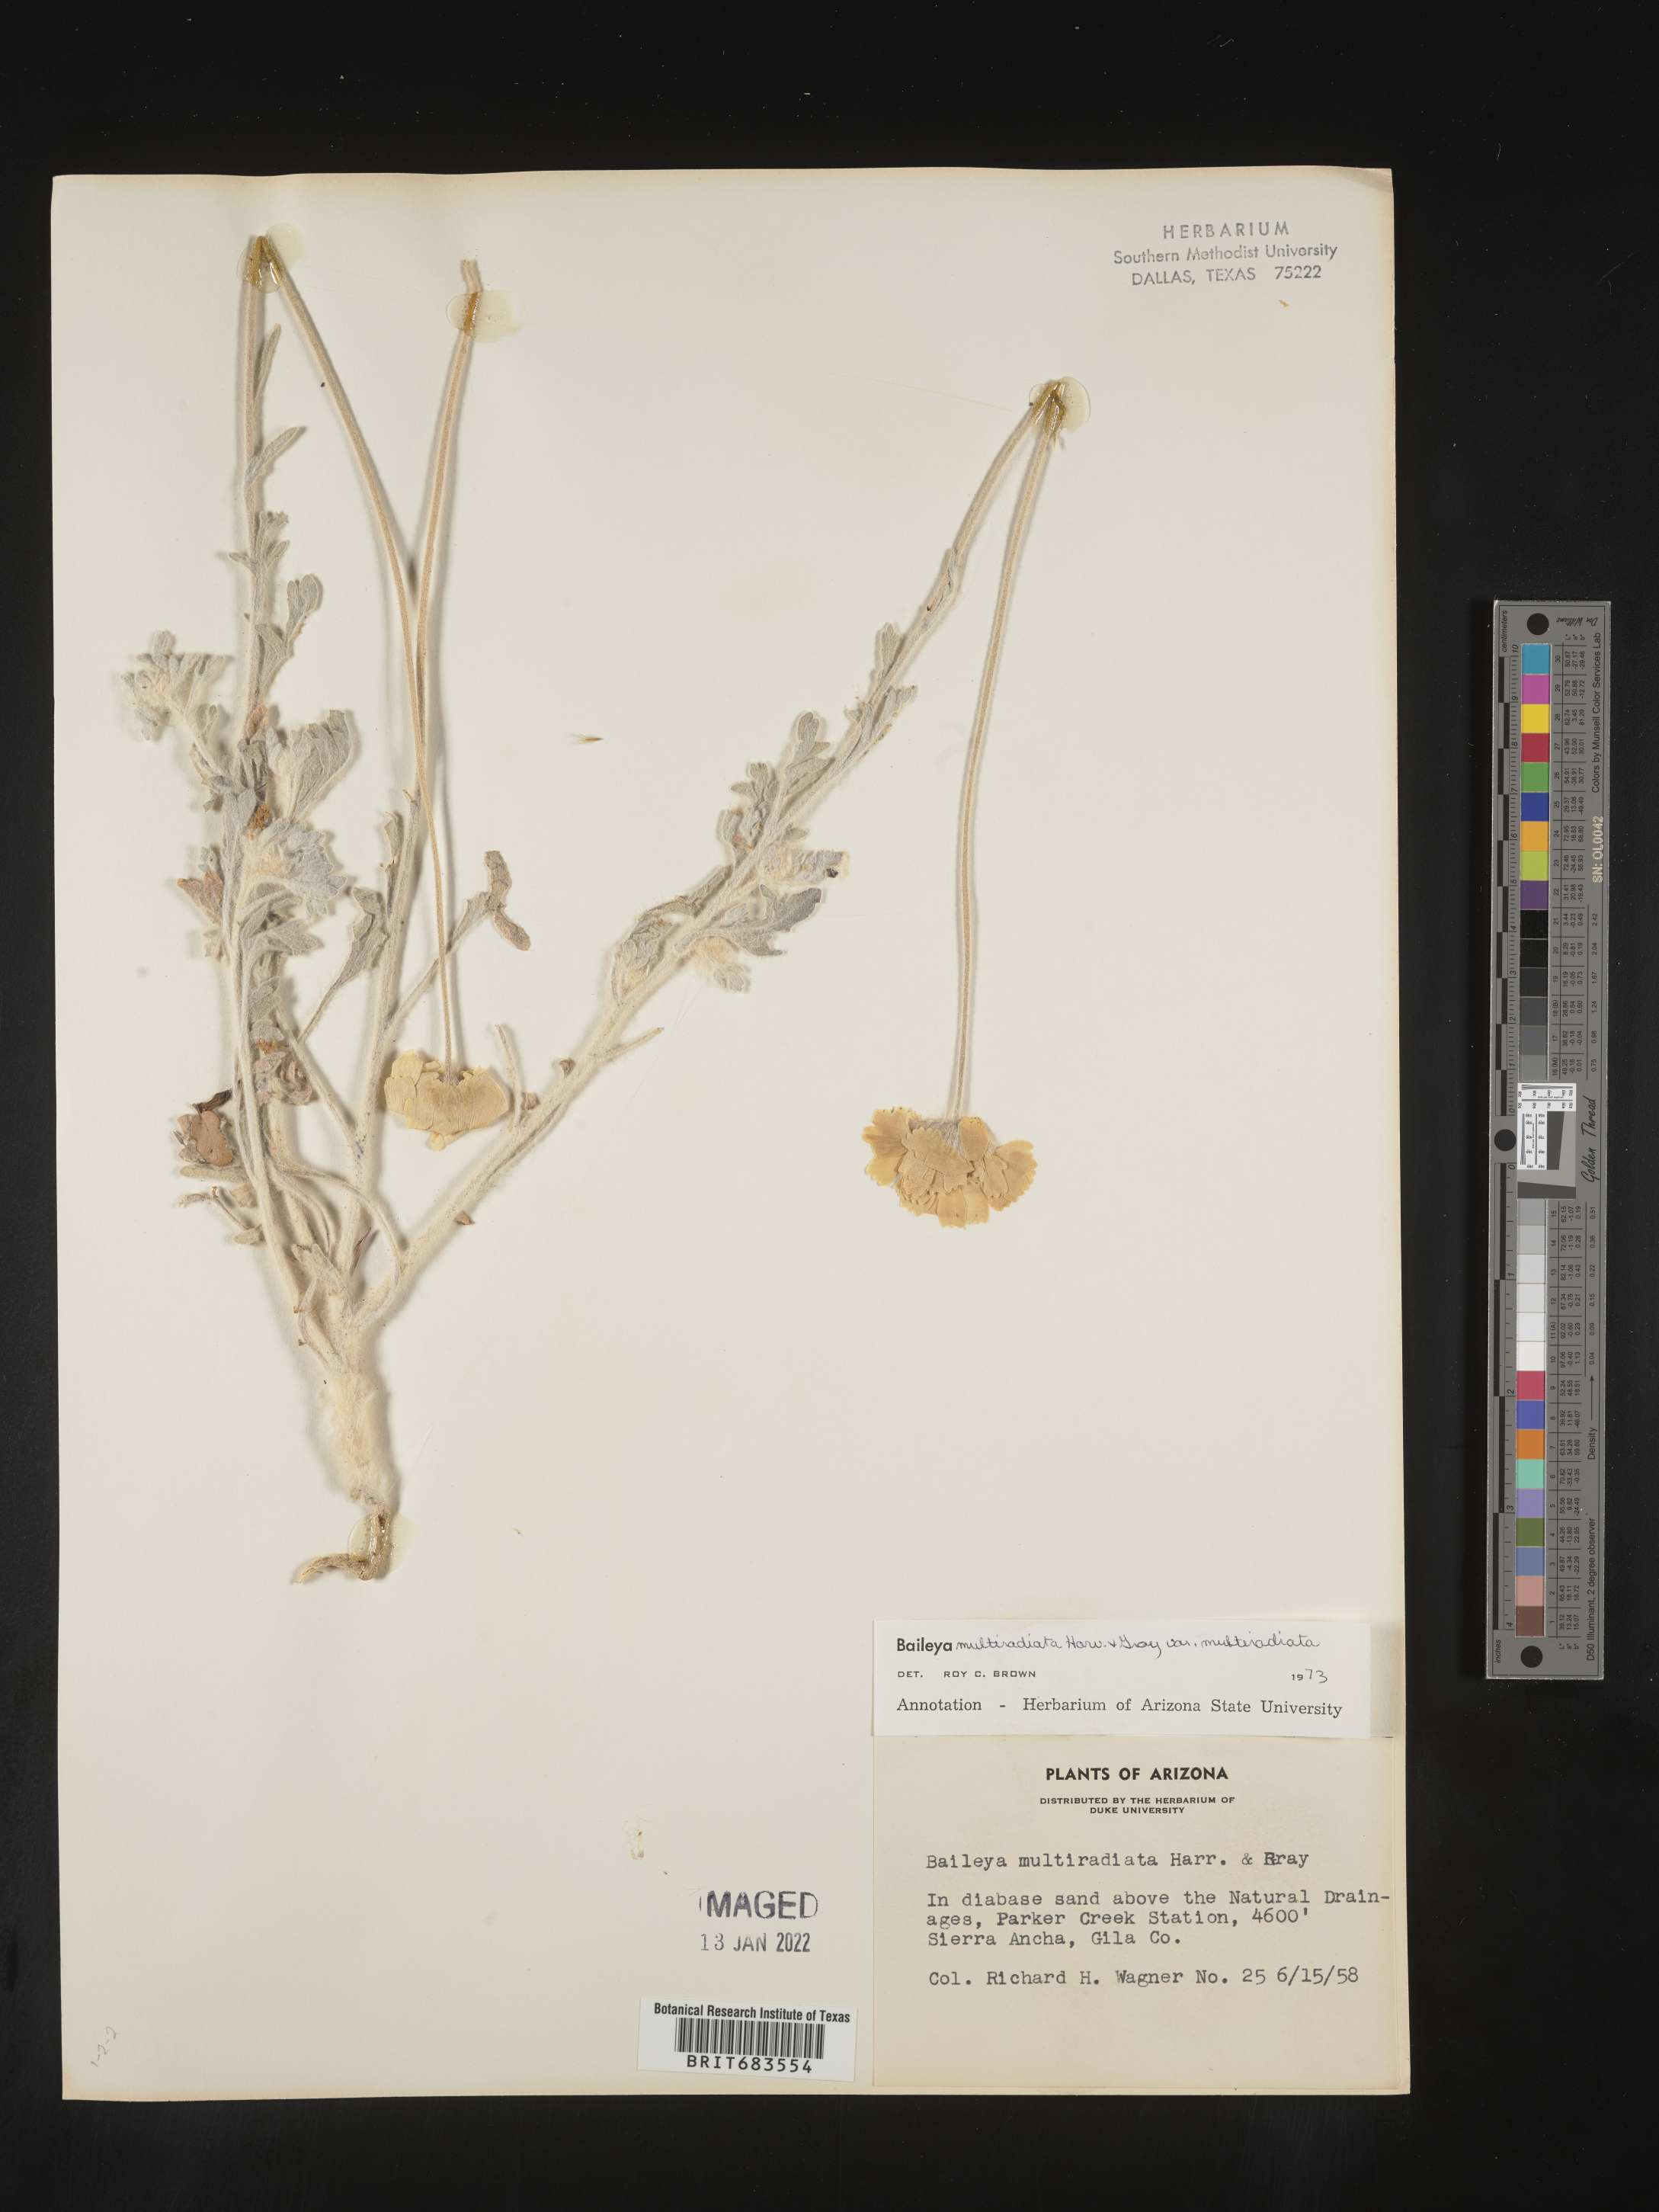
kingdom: Plantae
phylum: Tracheophyta
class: Magnoliopsida
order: Asterales
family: Asteraceae
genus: Baileya
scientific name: Baileya multiradiata
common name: Desert-marigold
